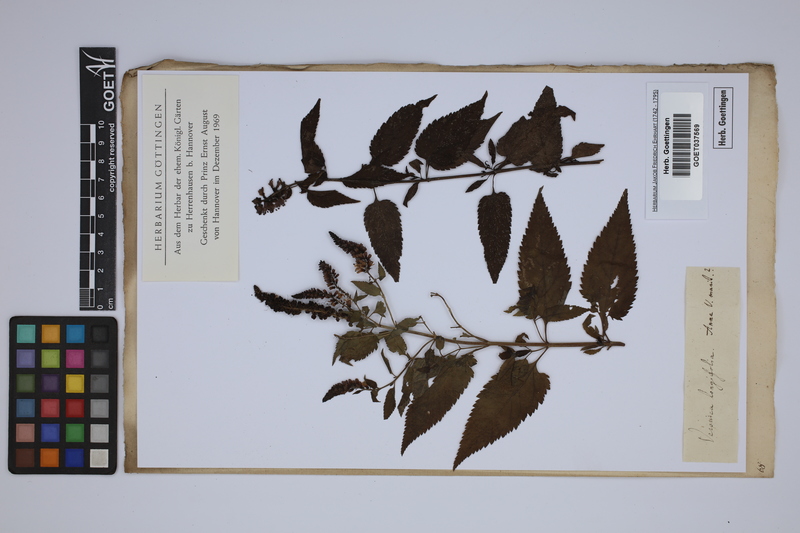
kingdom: Plantae
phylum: Tracheophyta
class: Magnoliopsida
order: Lamiales
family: Plantaginaceae
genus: Veronica
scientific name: Veronica longifolia
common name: Garden speedwell
